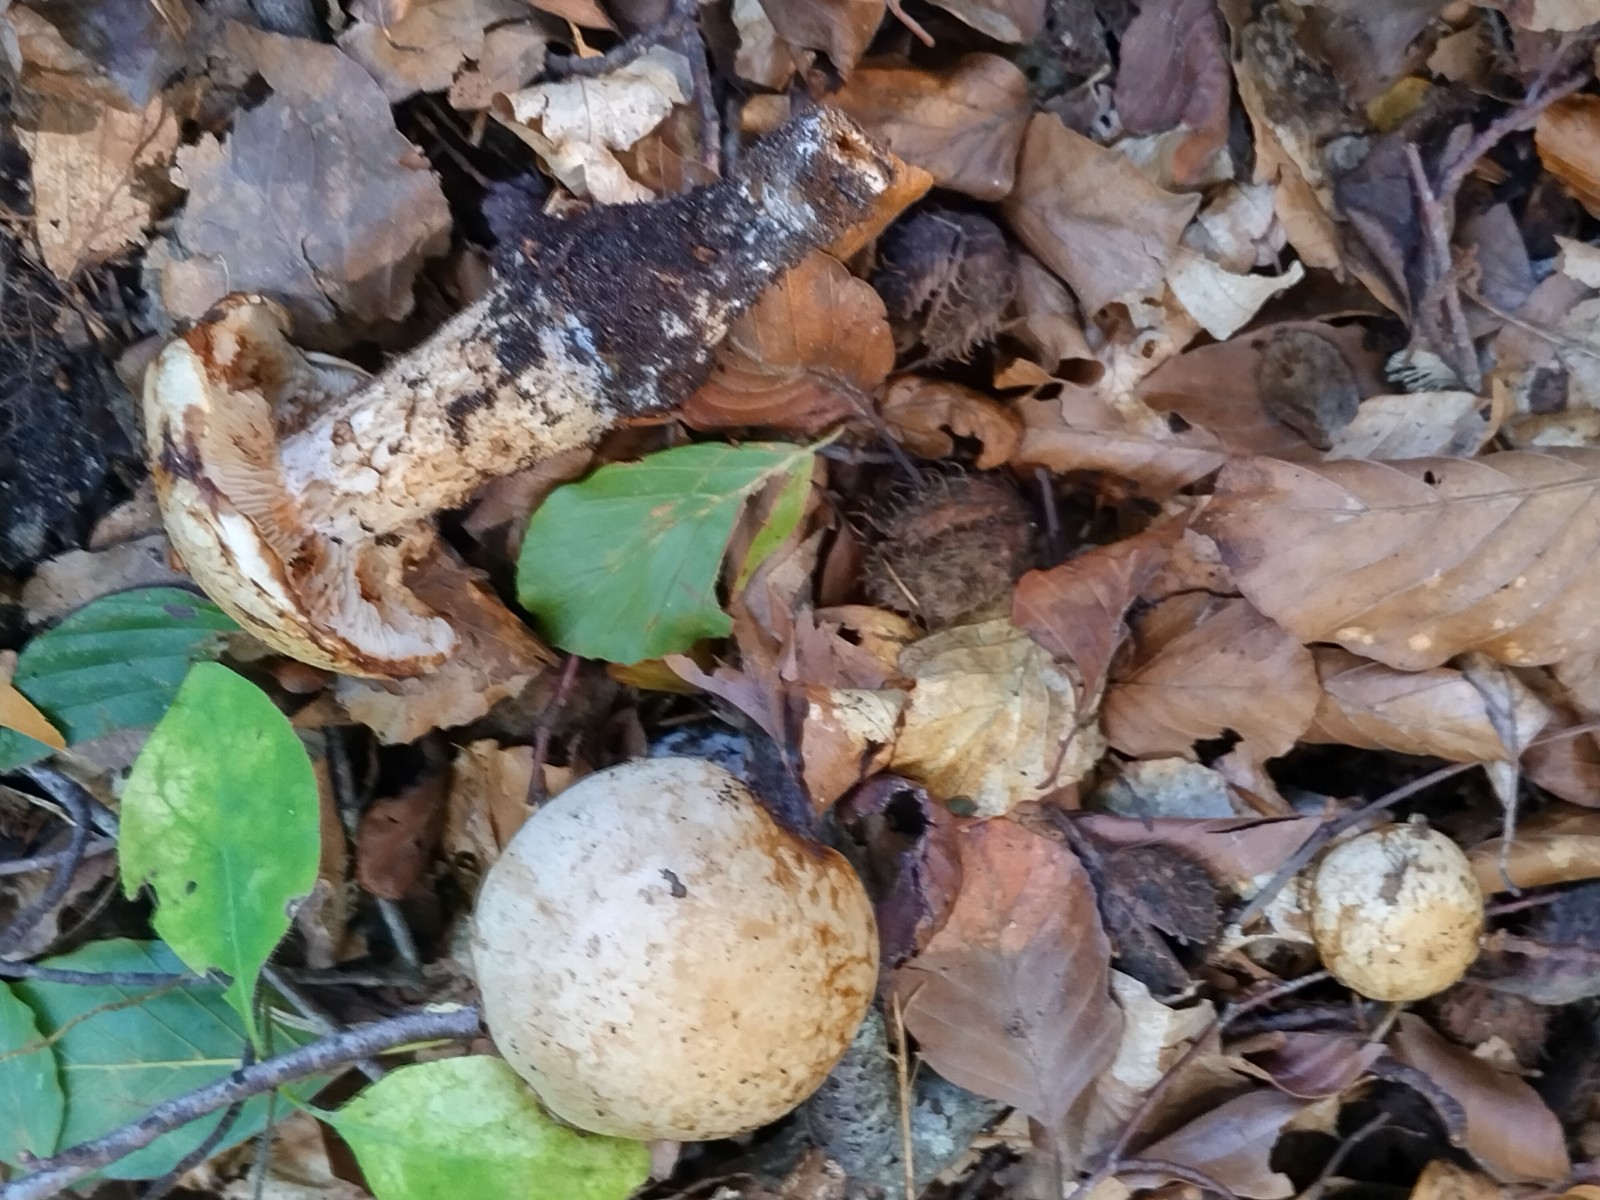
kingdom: Fungi
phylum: Basidiomycota
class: Agaricomycetes
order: Agaricales
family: Hymenogastraceae
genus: Hebeloma
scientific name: Hebeloma radicosum
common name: pælerods-tåreblad
